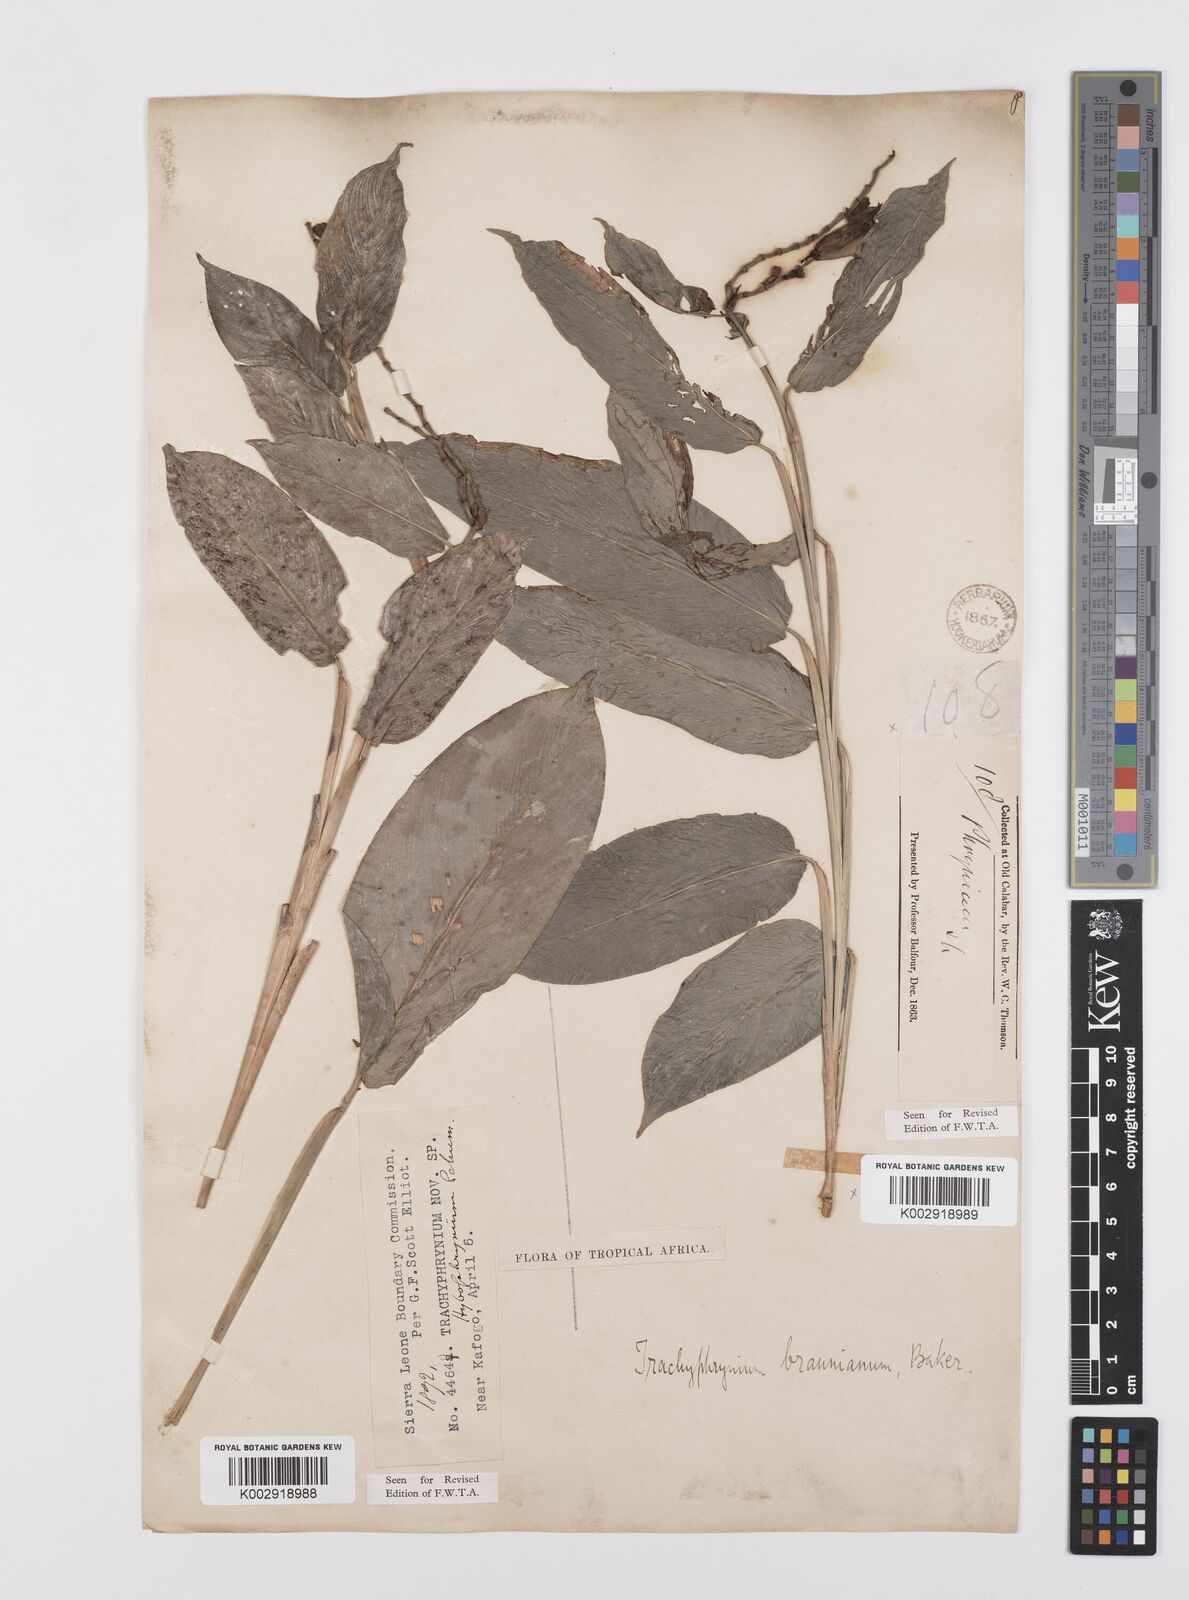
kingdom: Plantae
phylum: Tracheophyta
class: Liliopsida
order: Zingiberales
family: Marantaceae
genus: Trachyphrynium
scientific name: Trachyphrynium braunianum
